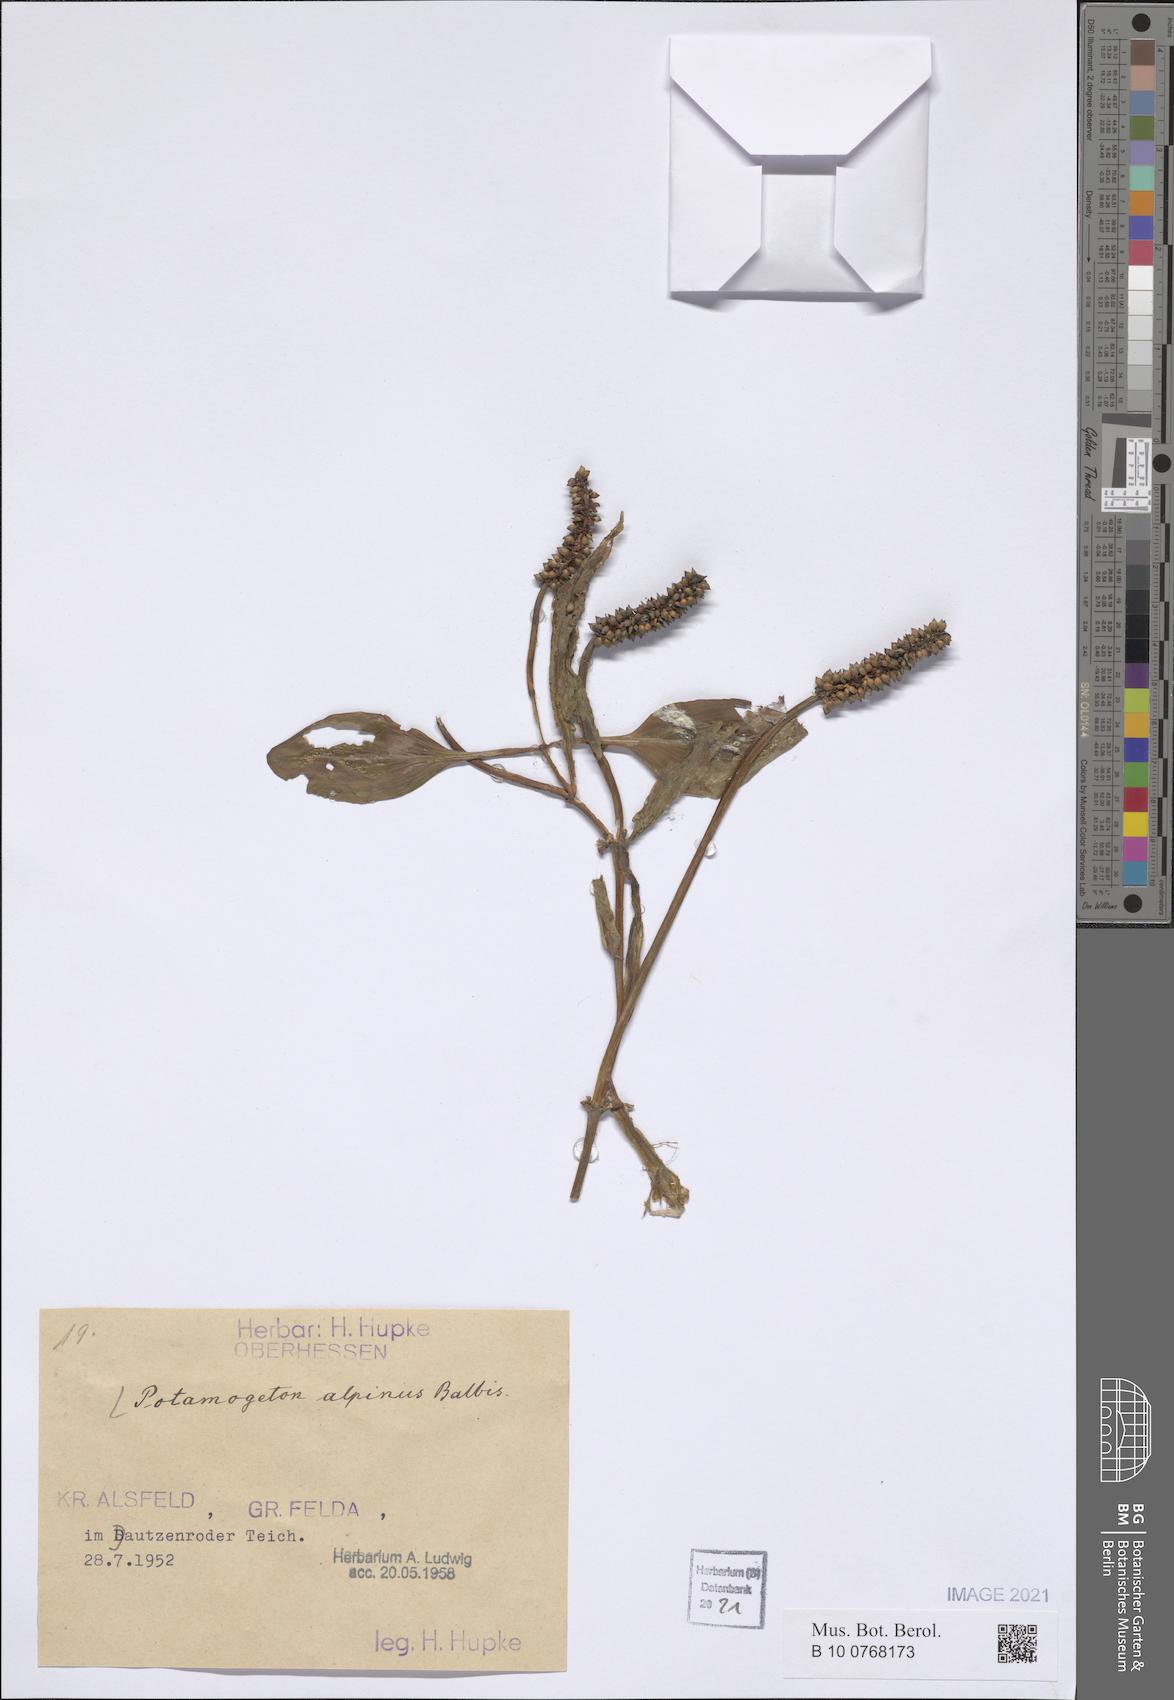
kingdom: Plantae
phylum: Tracheophyta
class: Liliopsida
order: Alismatales
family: Potamogetonaceae
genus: Potamogeton
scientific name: Potamogeton alpinus
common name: Red pondweed
